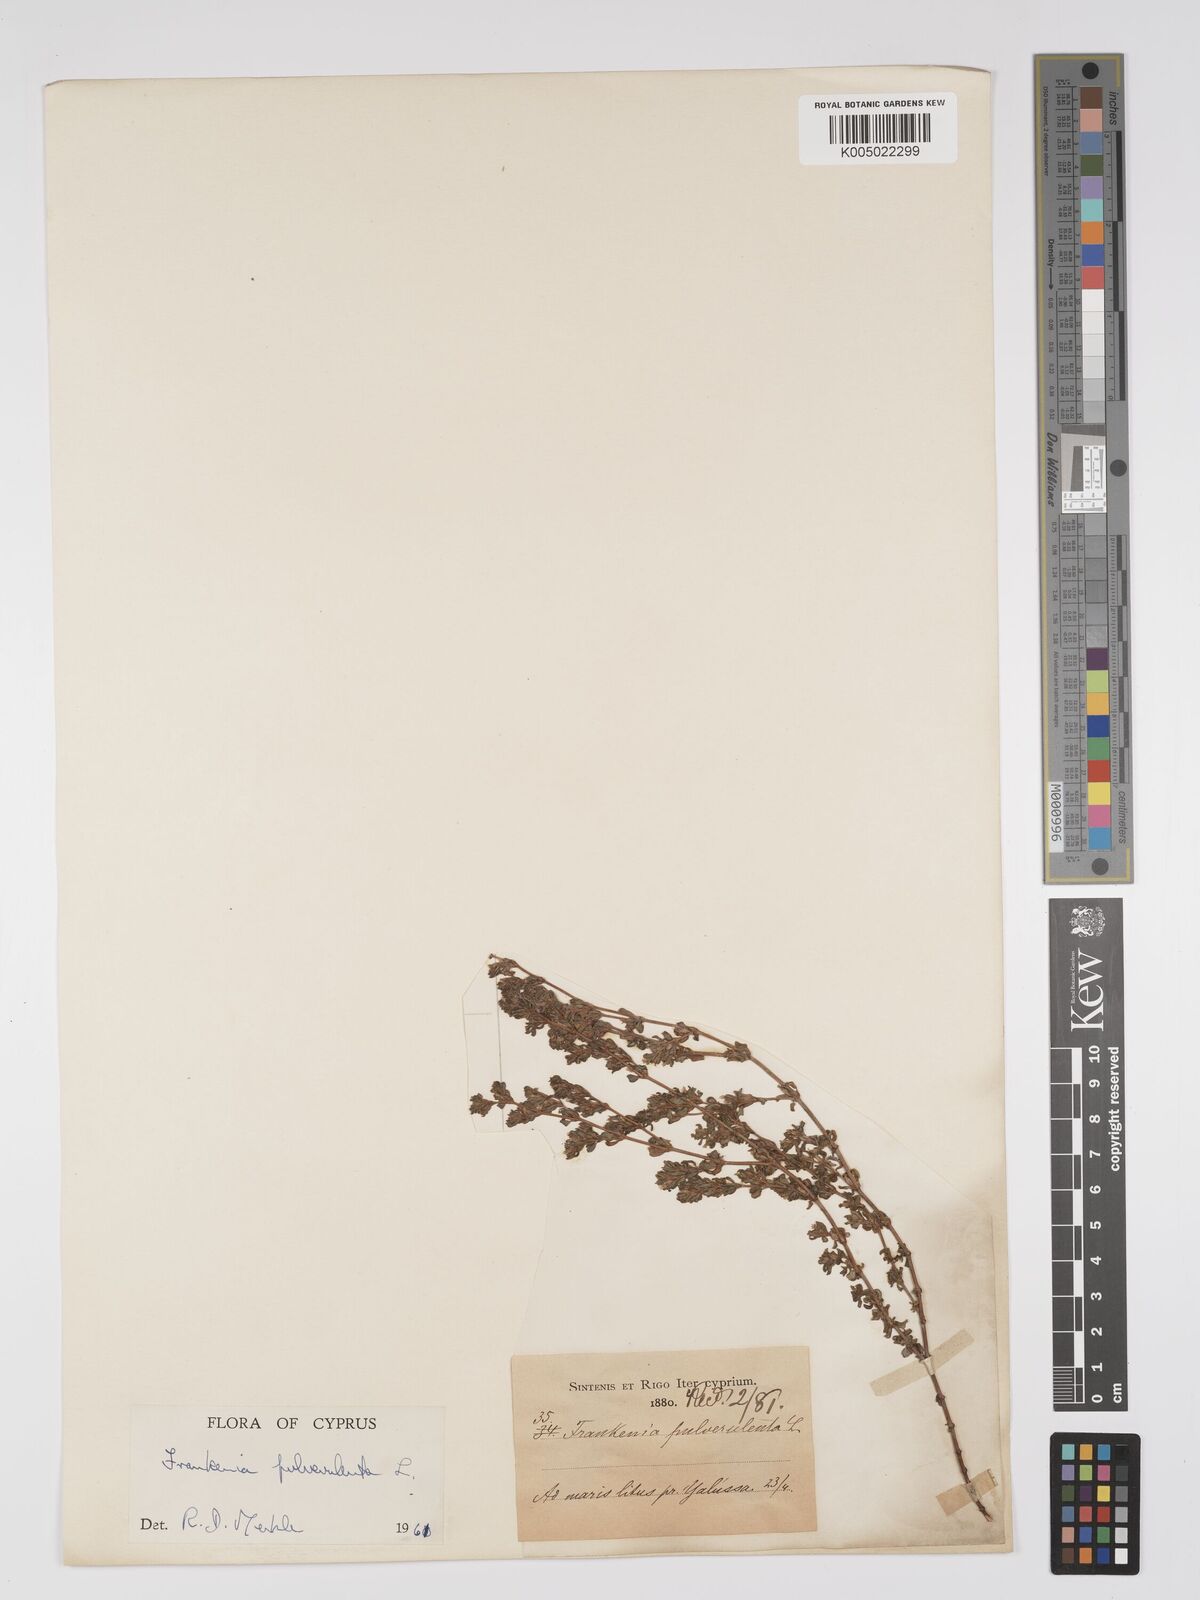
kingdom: Plantae
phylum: Tracheophyta
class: Magnoliopsida
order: Caryophyllales
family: Frankeniaceae
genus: Frankenia
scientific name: Frankenia pulverulenta
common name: European seaheath
